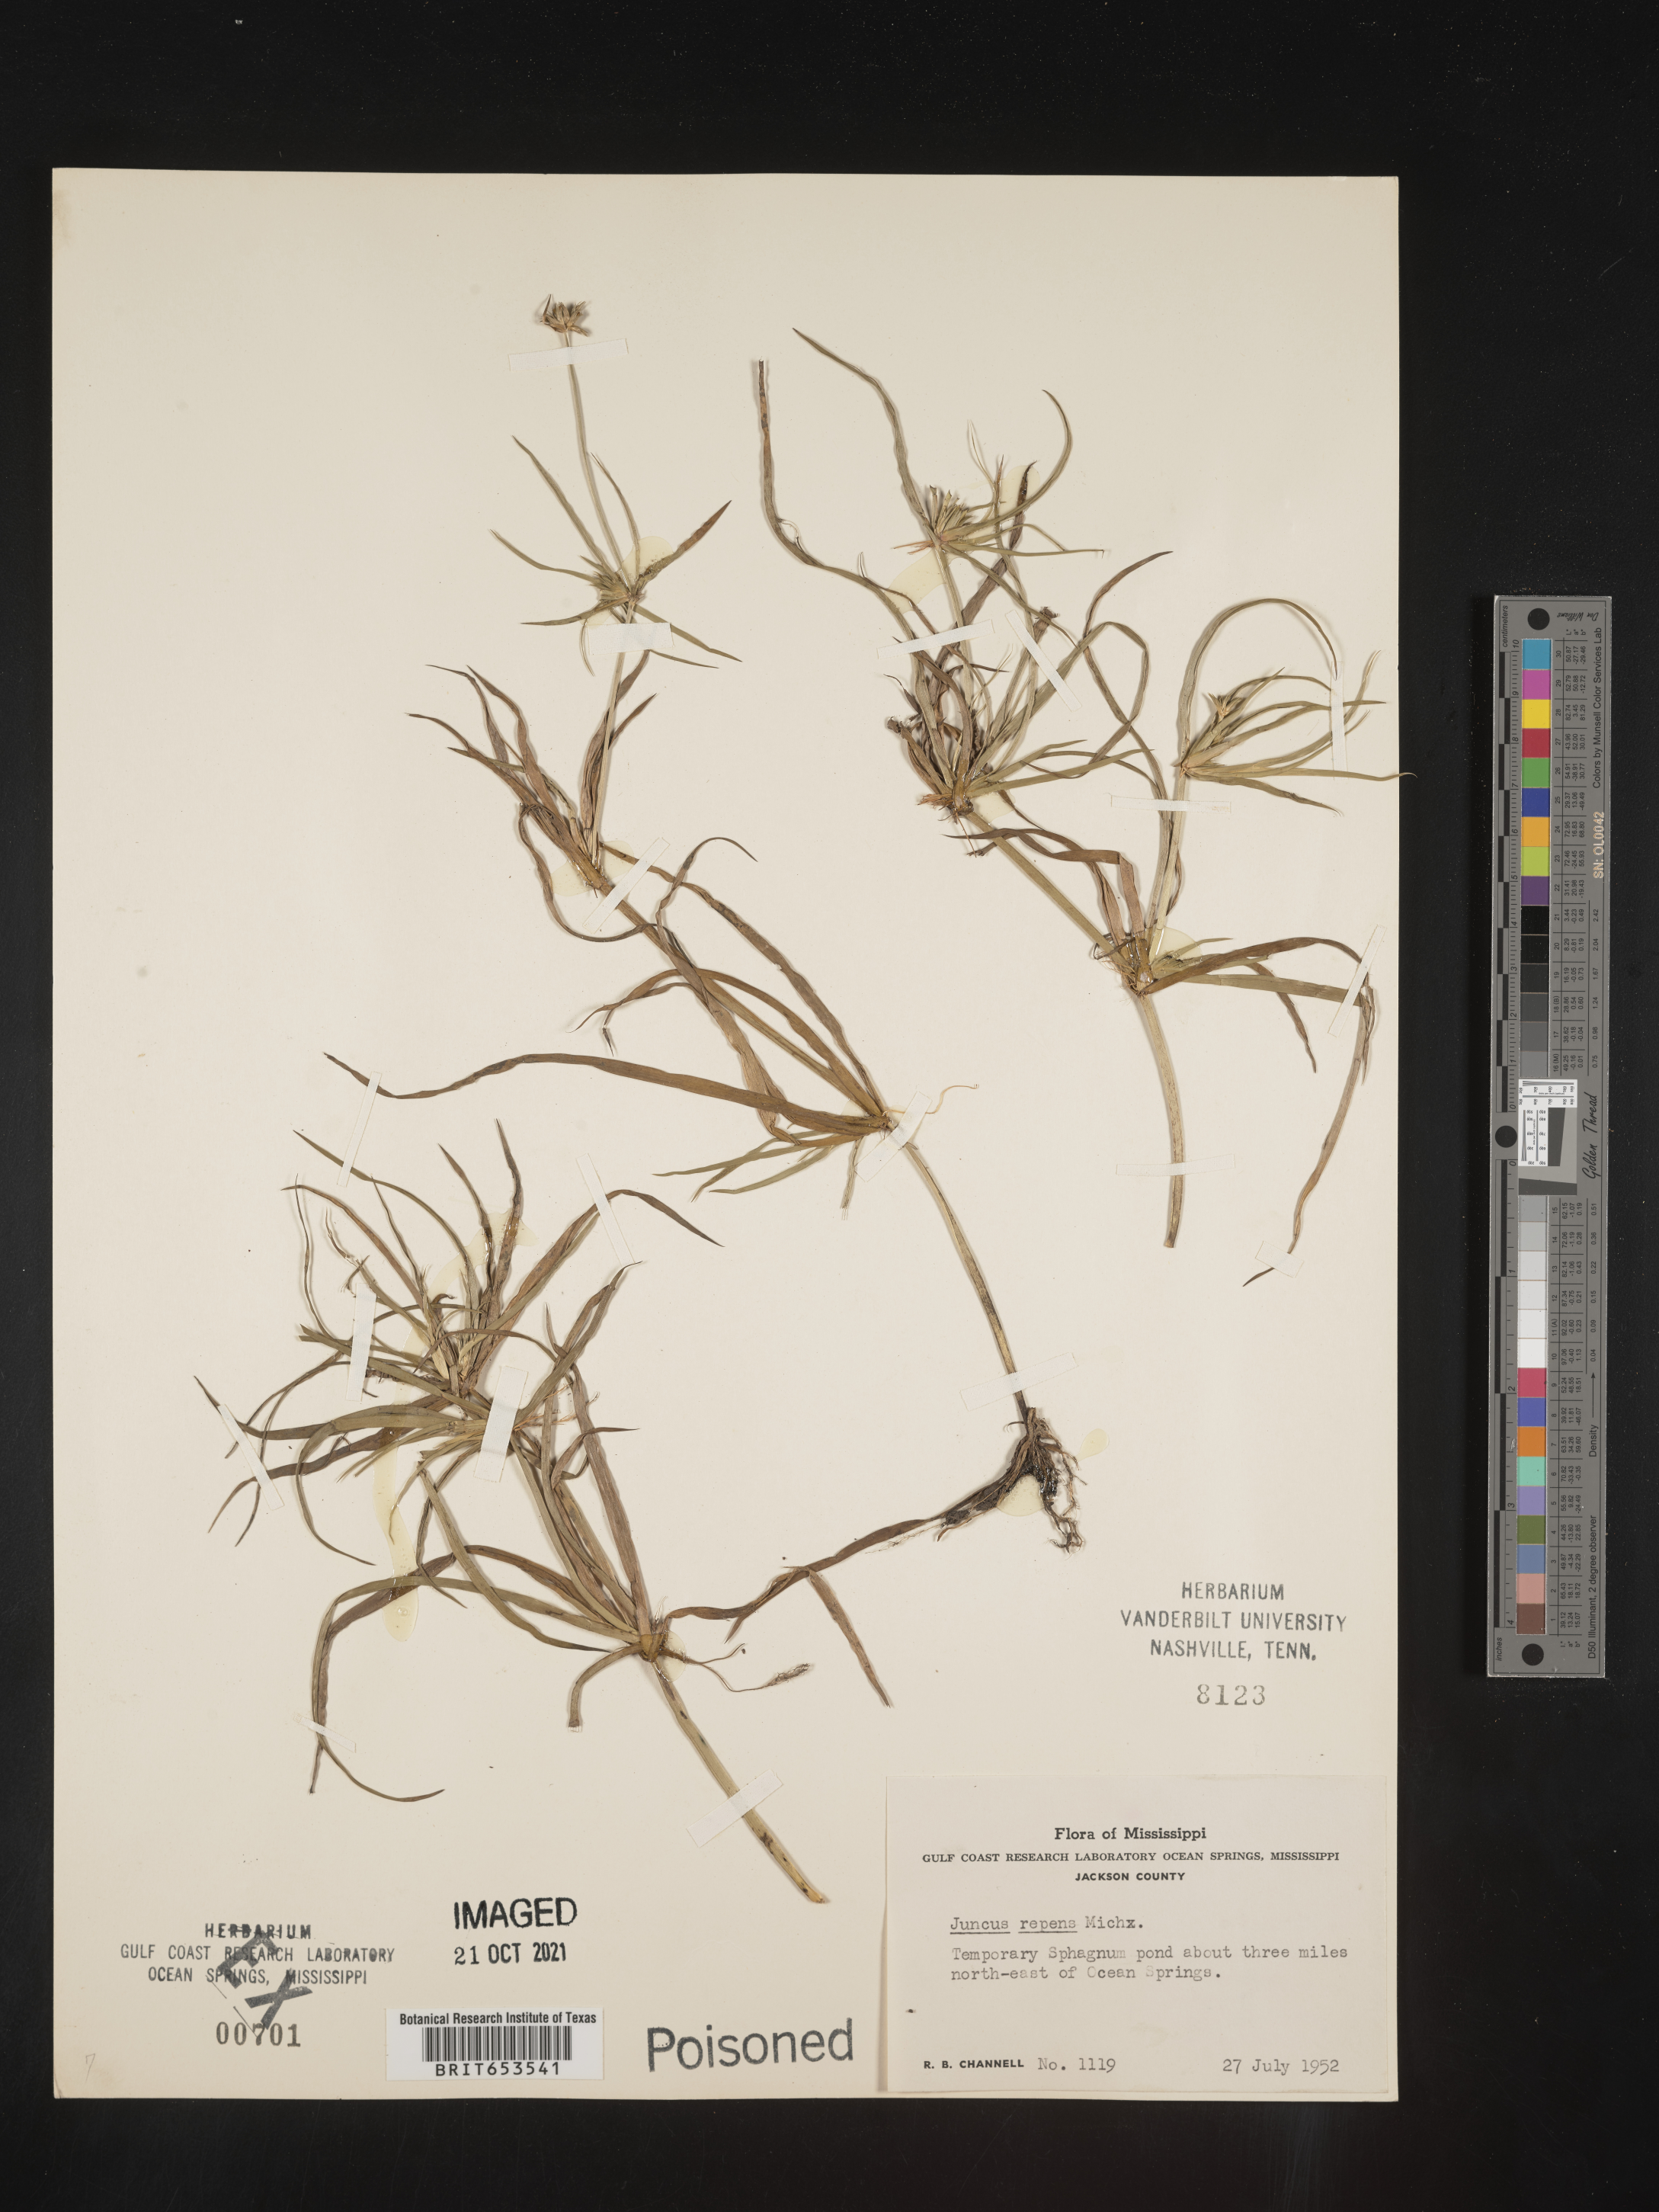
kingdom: Plantae
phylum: Tracheophyta
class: Liliopsida
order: Poales
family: Juncaceae
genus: Juncus
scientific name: Juncus repens
